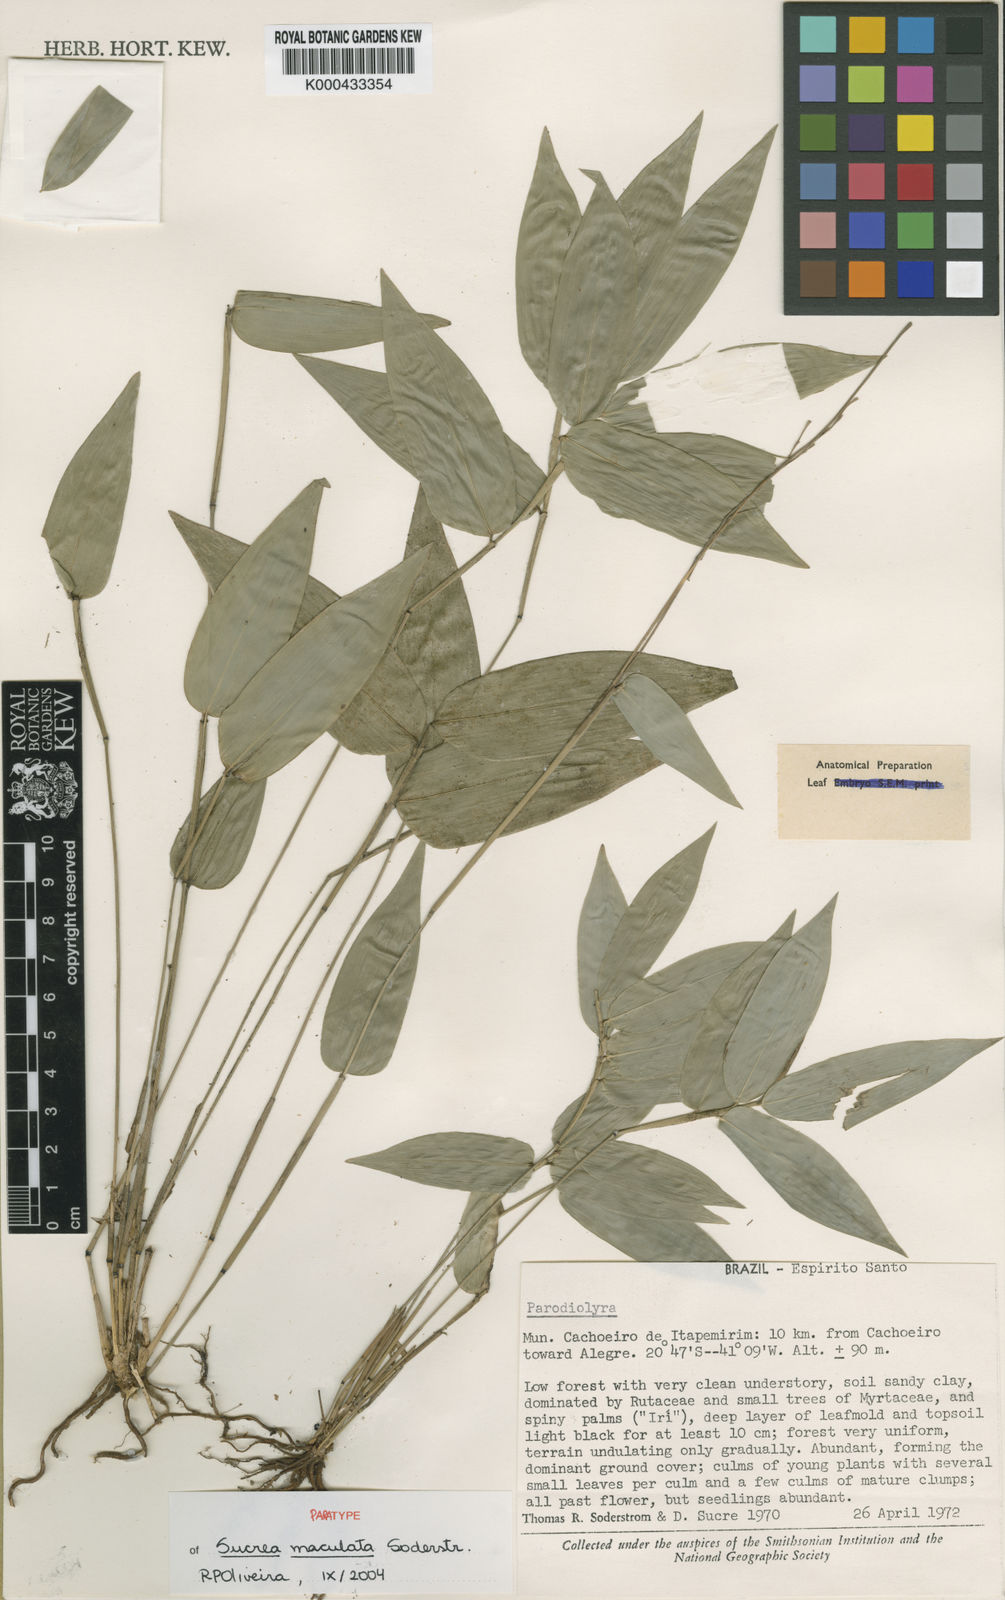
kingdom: Plantae
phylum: Tracheophyta
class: Liliopsida
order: Poales
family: Poaceae
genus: Raddia
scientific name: Raddia maculata
